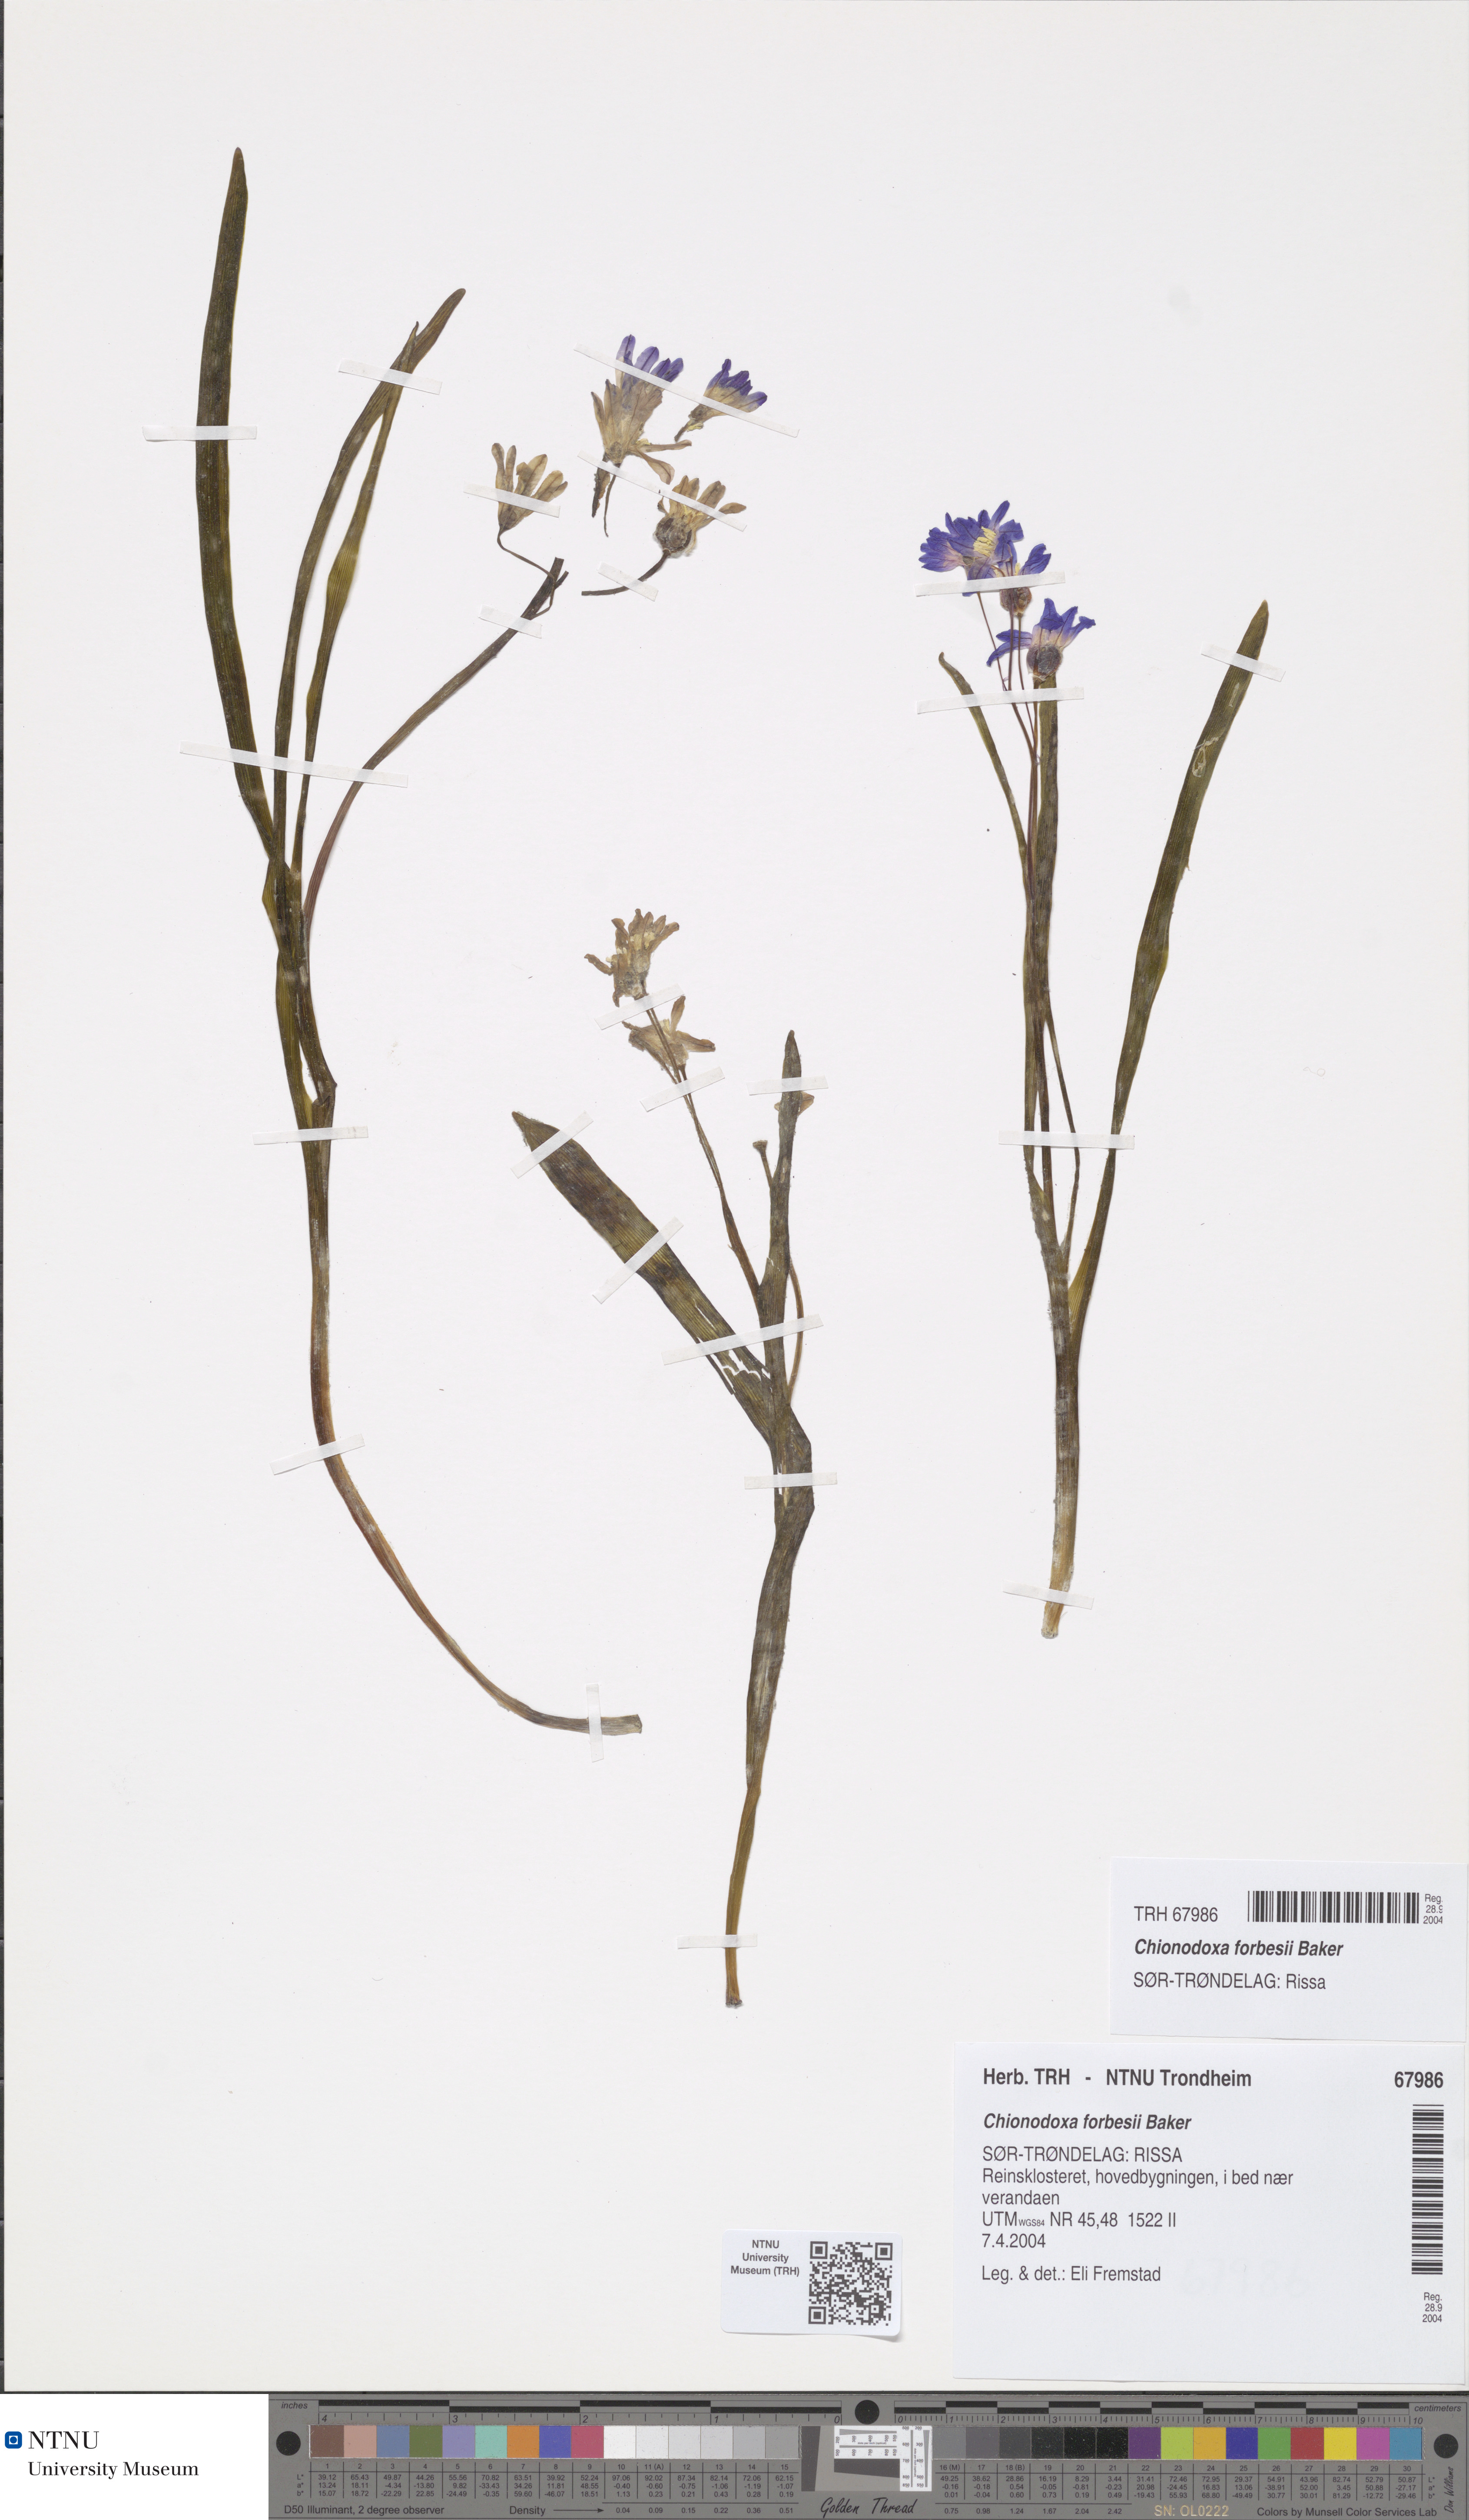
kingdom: Plantae
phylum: Tracheophyta
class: Liliopsida
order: Asparagales
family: Asparagaceae
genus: Scilla
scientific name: Scilla forbesii
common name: Glory-of-the-snow
